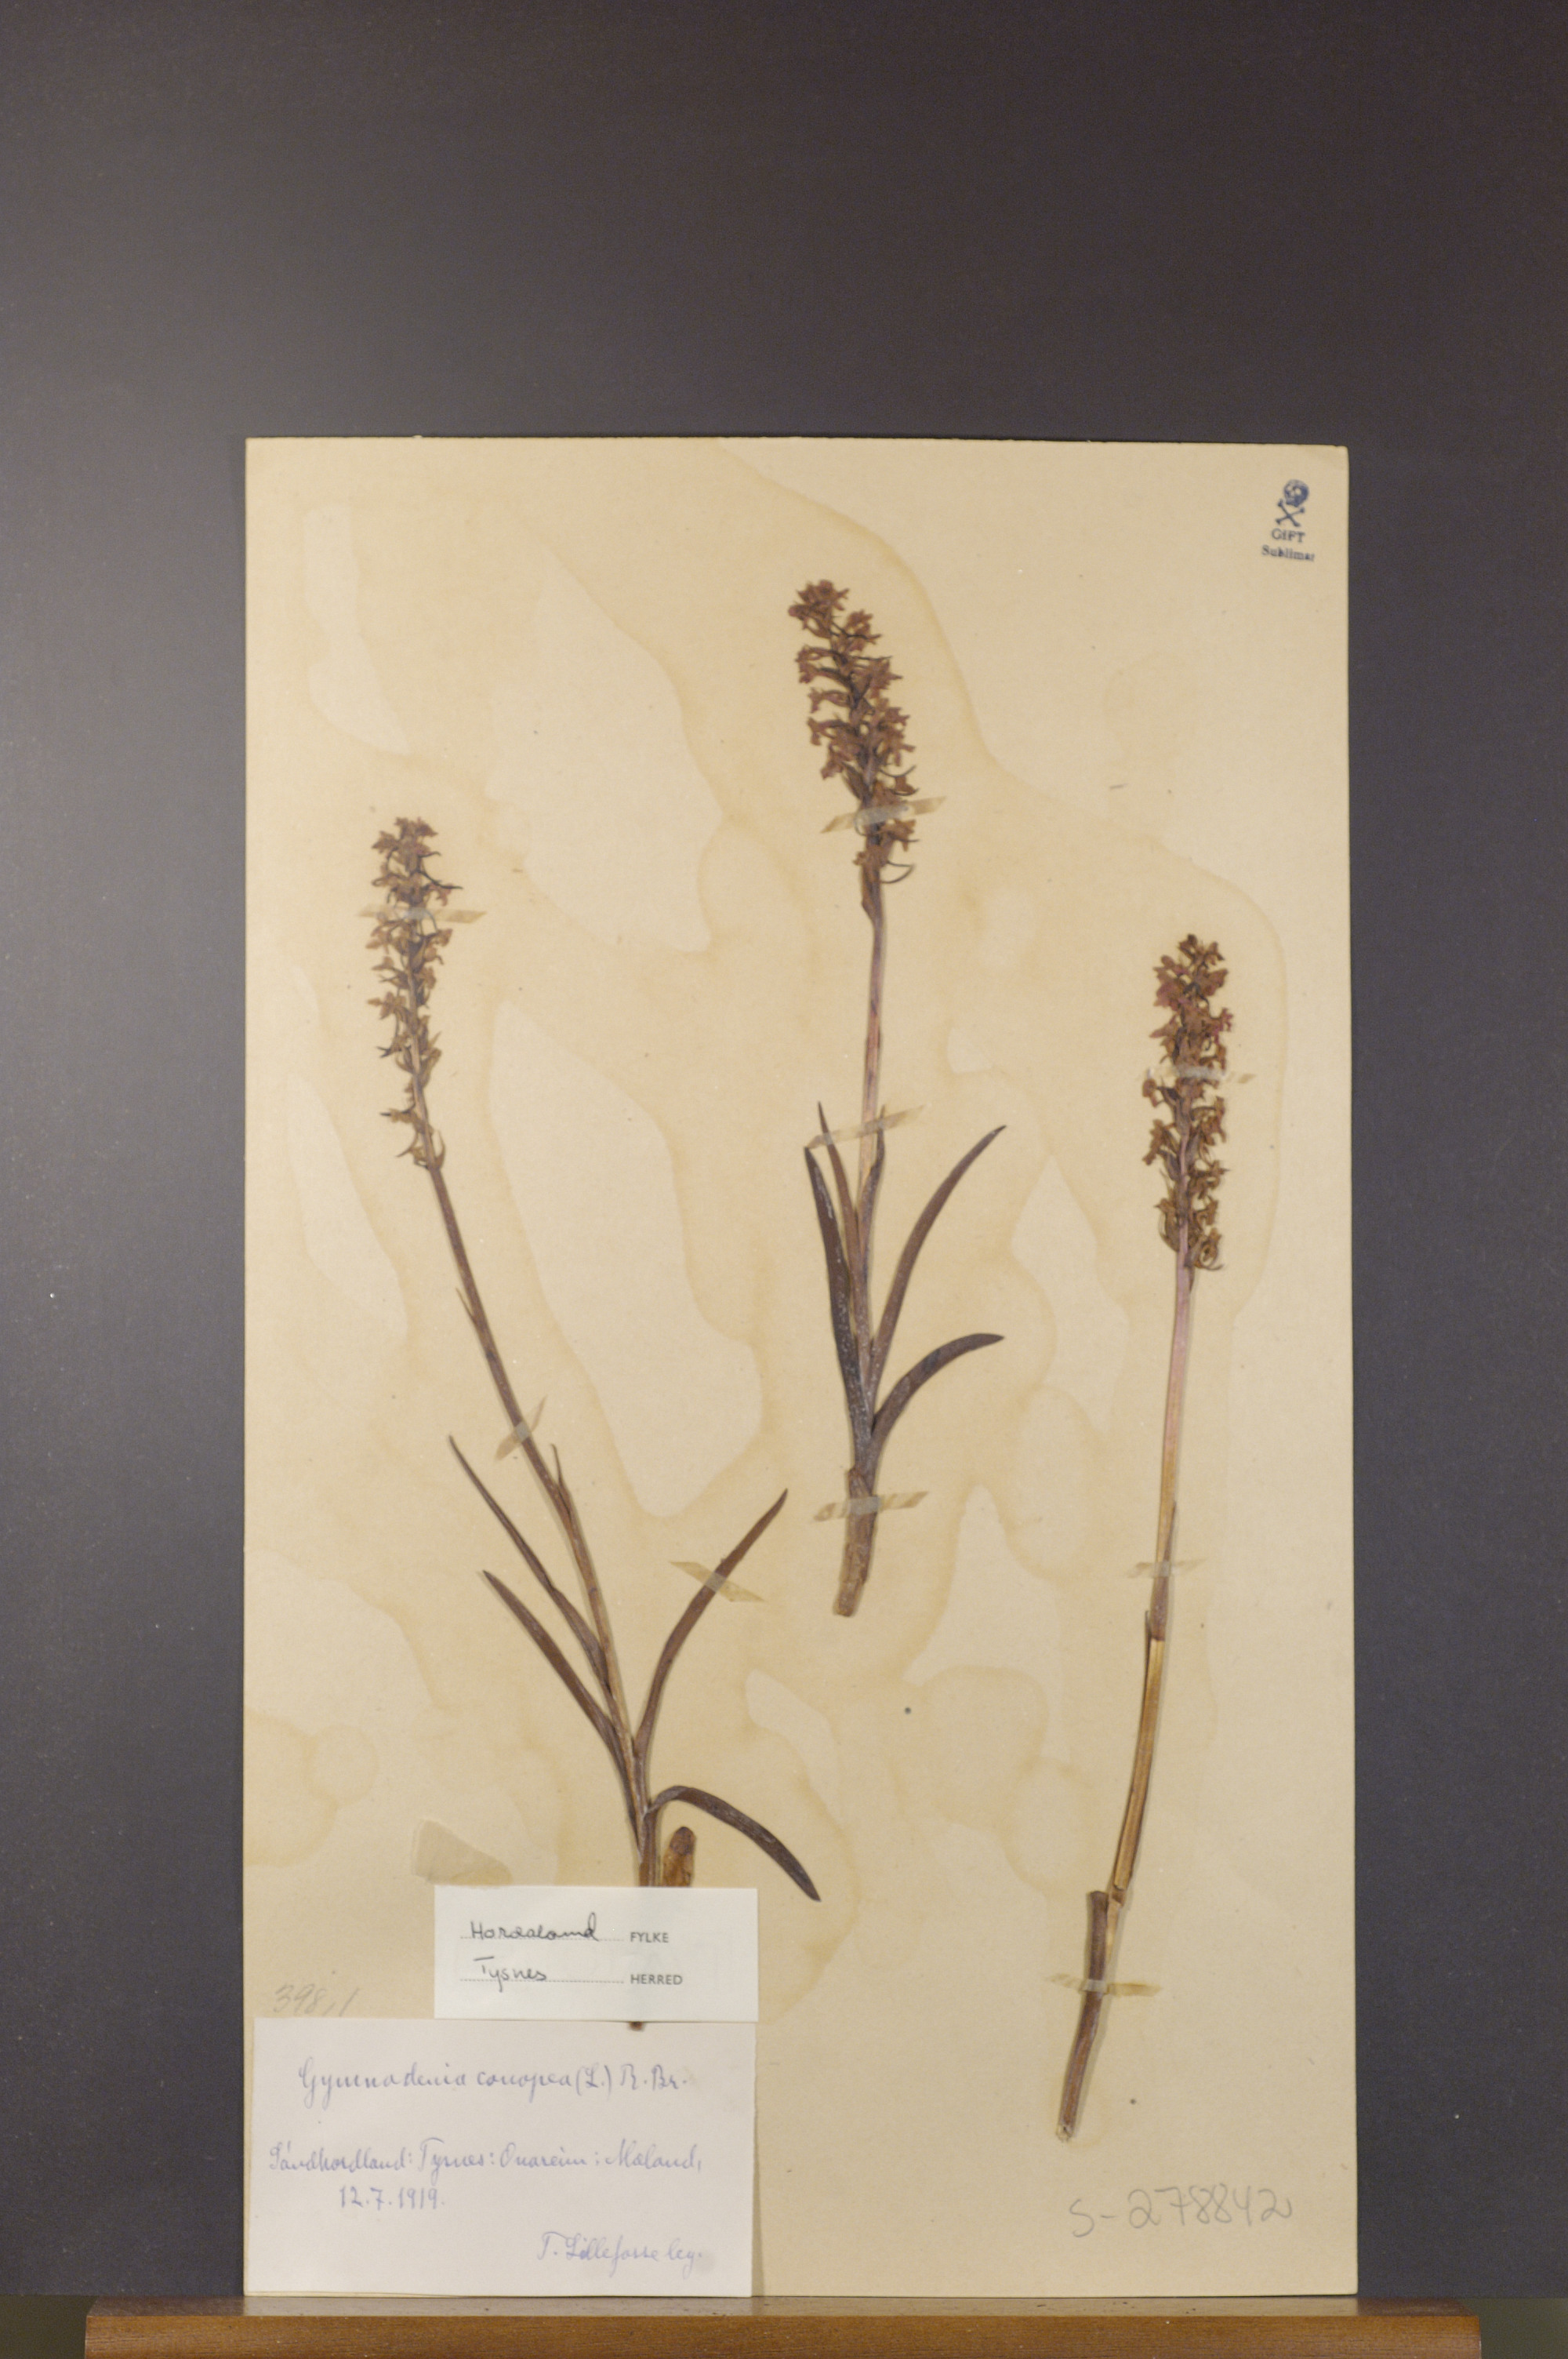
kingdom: Plantae
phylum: Tracheophyta
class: Liliopsida
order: Asparagales
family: Orchidaceae
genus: Gymnadenia
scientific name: Gymnadenia conopsea
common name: Fragrant orchid
